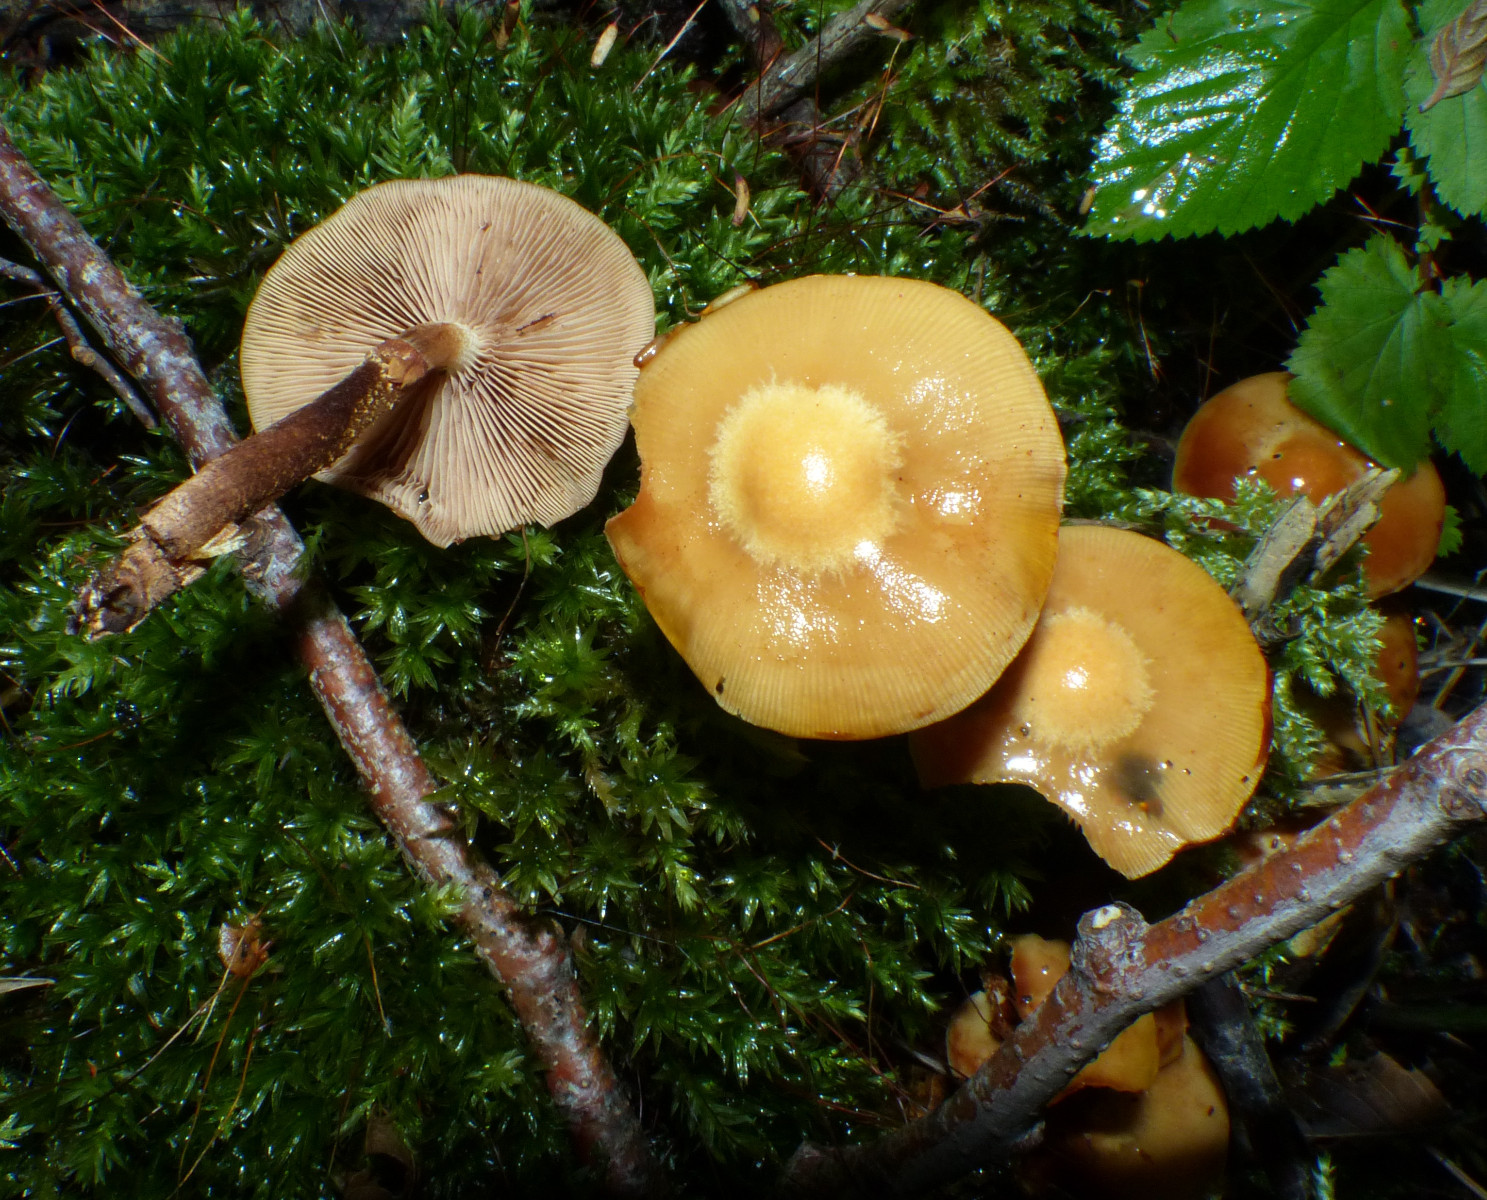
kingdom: Fungi
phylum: Basidiomycota
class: Agaricomycetes
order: Agaricales
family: Strophariaceae
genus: Kuehneromyces
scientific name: Kuehneromyces mutabilis
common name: foranderlig skælhat
